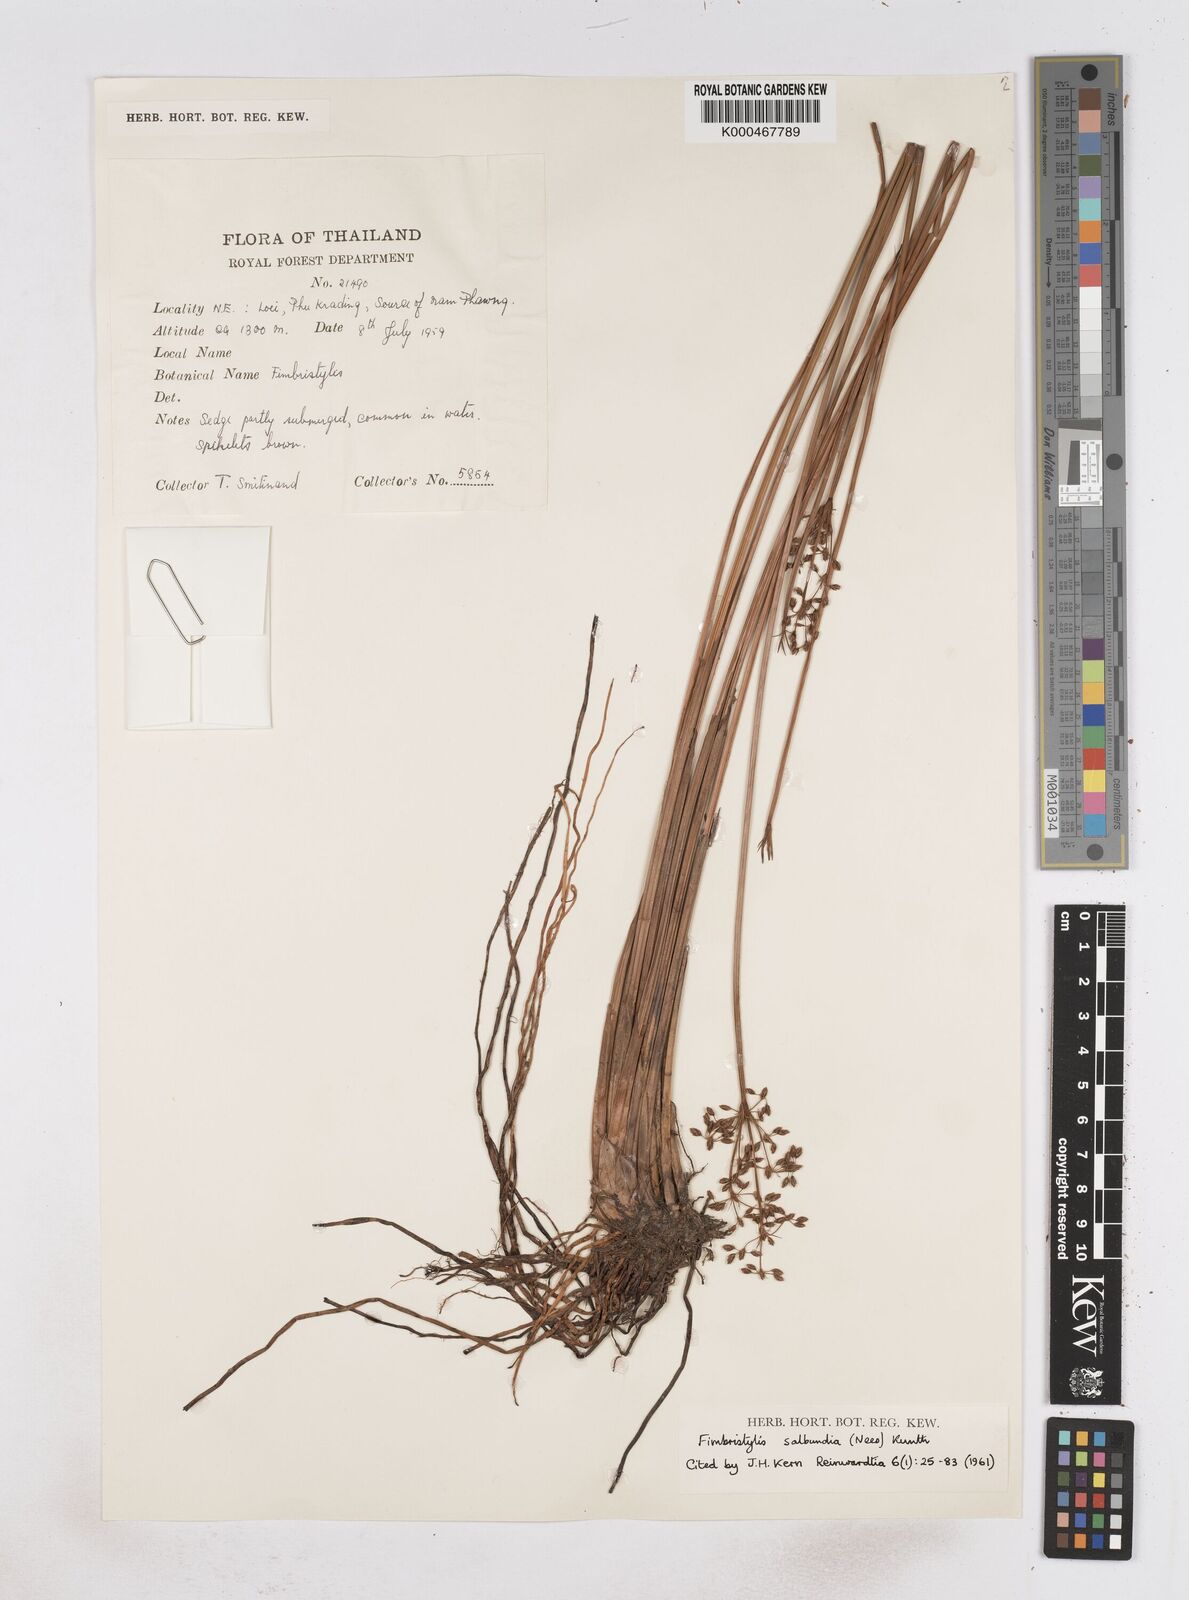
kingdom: Plantae
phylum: Tracheophyta
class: Liliopsida
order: Poales
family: Cyperaceae
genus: Fimbristylis
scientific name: Fimbristylis anisoclada
